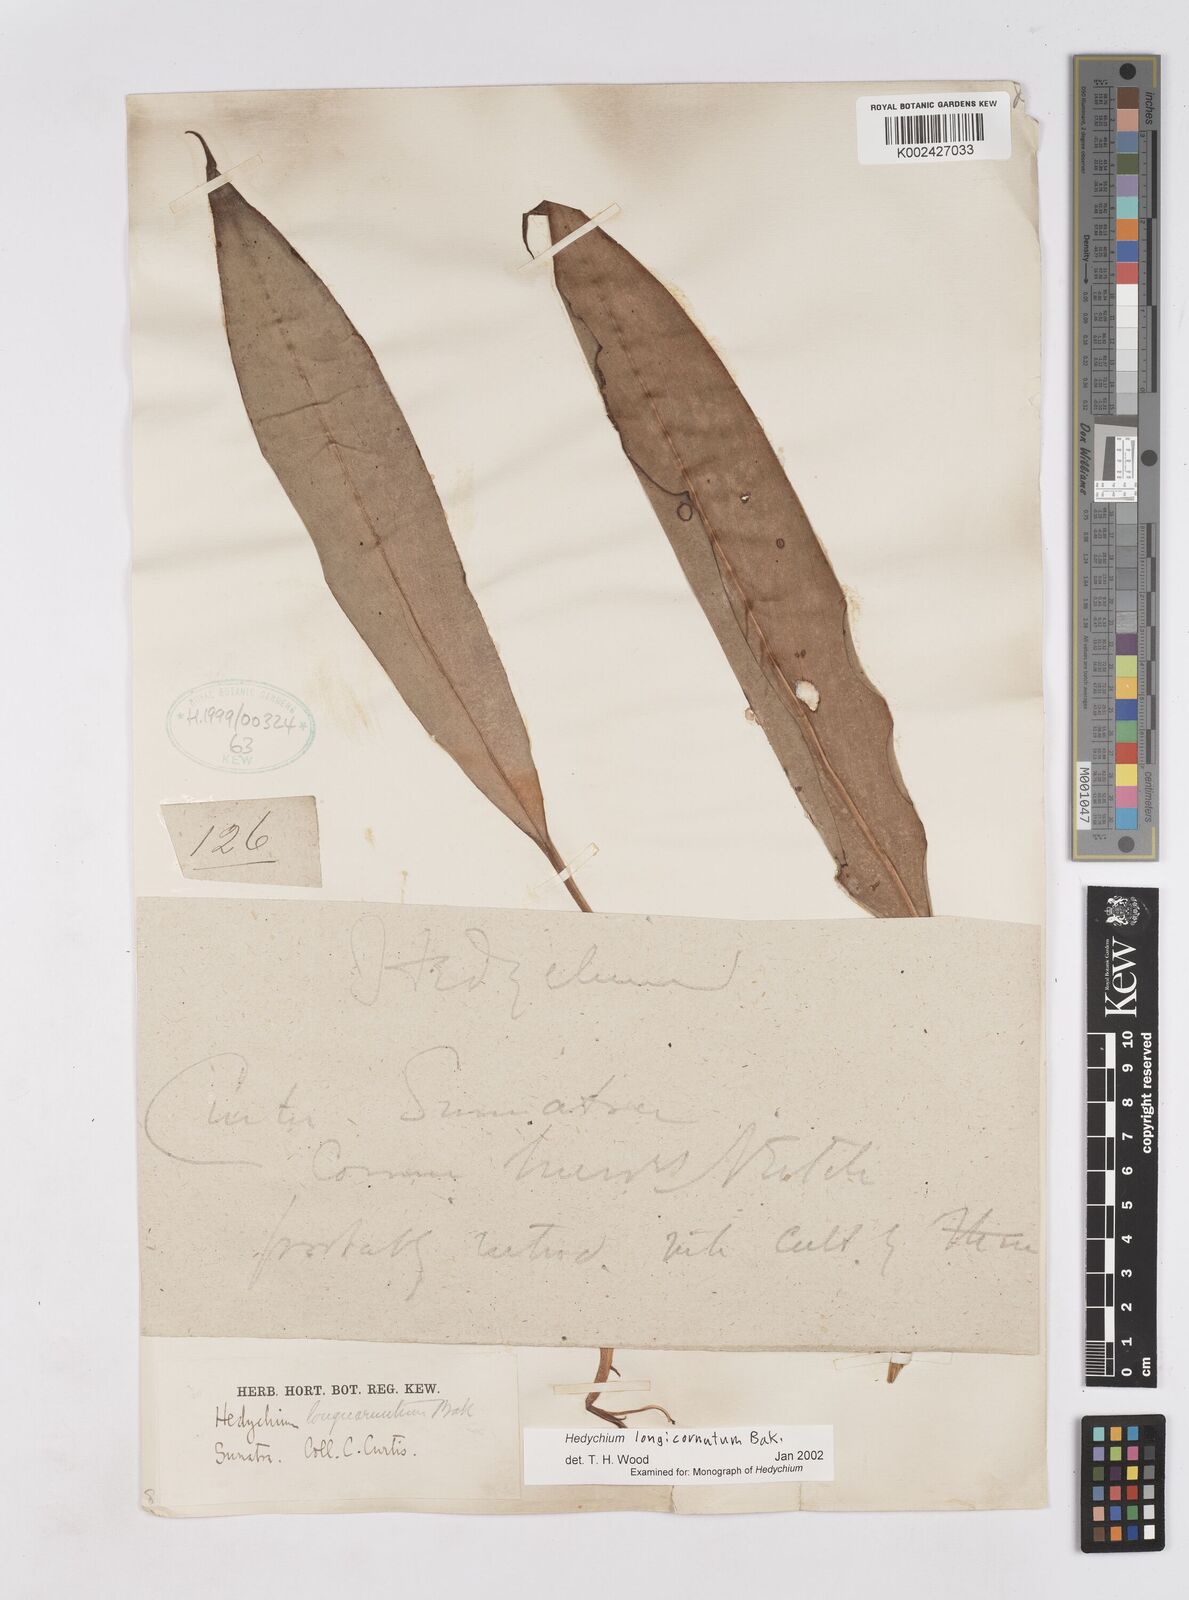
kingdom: Plantae
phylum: Tracheophyta
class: Liliopsida
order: Zingiberales
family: Zingiberaceae
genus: Hedychium
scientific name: Hedychium longicornutum
